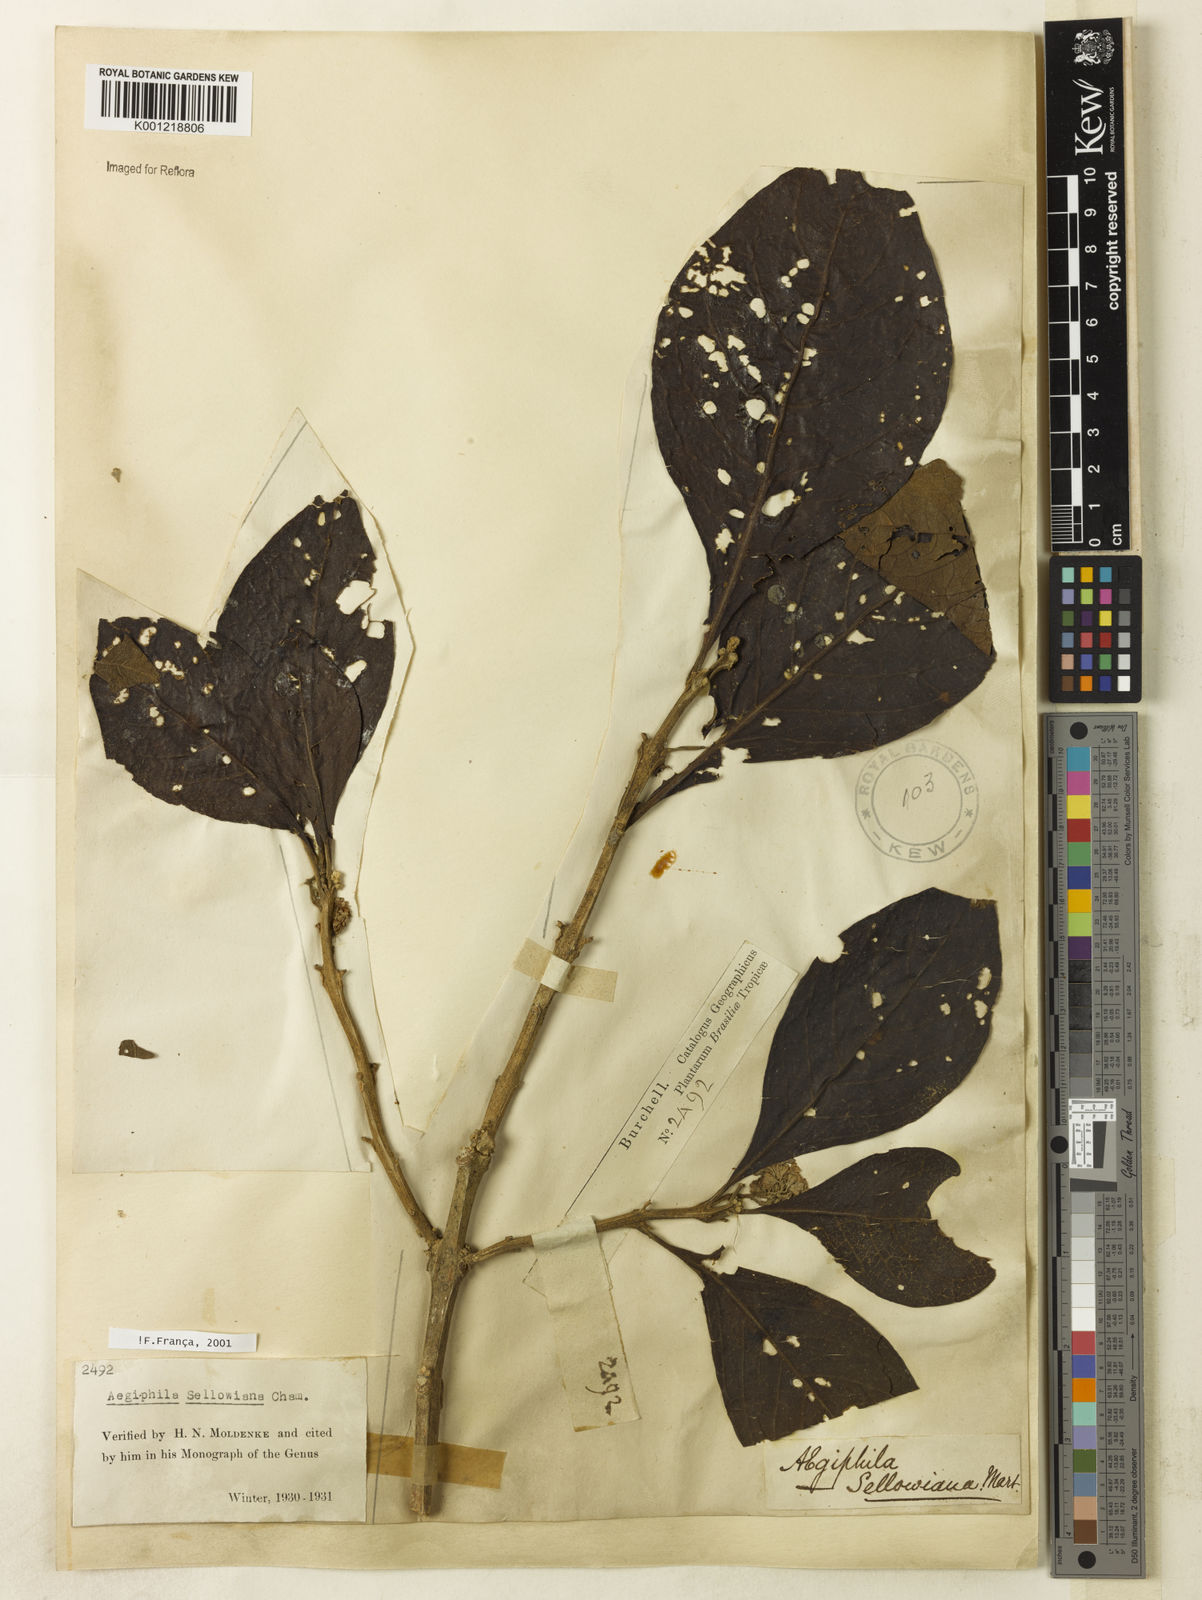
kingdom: Plantae
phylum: Tracheophyta
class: Magnoliopsida
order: Lamiales
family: Lamiaceae
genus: Aegiphila
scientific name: Aegiphila verticillata
